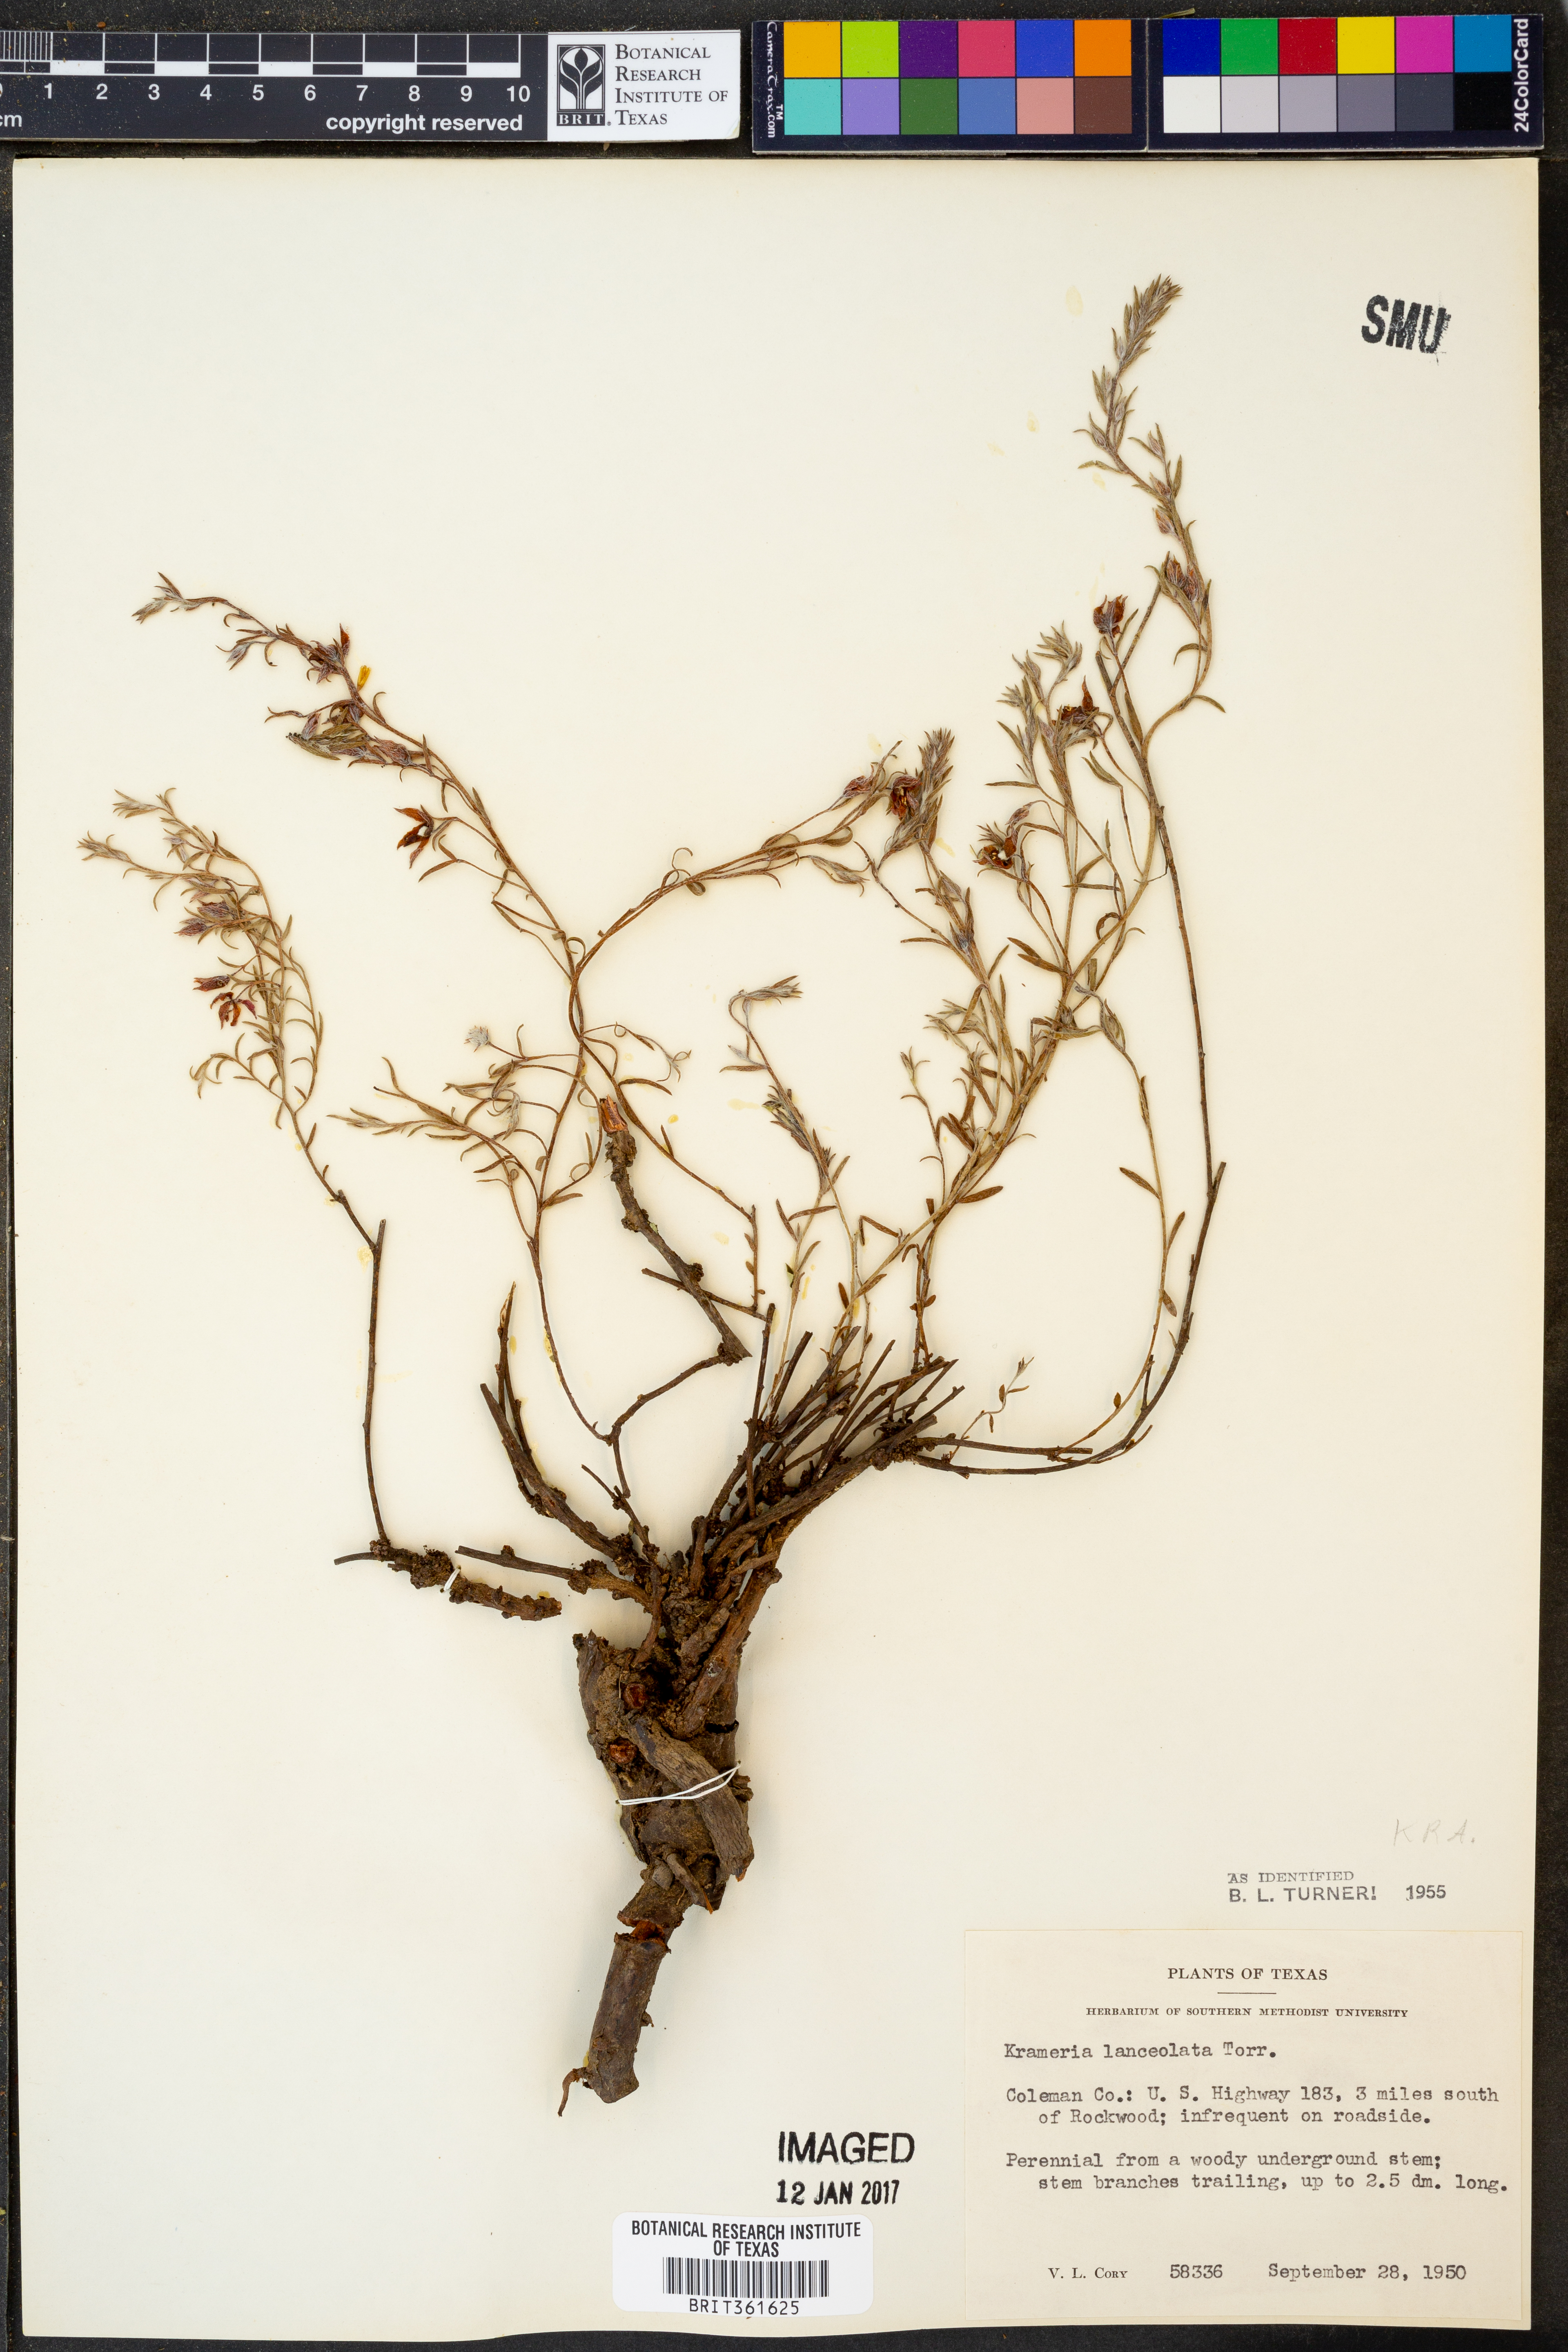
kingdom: Plantae
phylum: Tracheophyta
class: Magnoliopsida
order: Zygophyllales
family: Krameriaceae
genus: Krameria
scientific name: Krameria lanceolata
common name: Ratany
